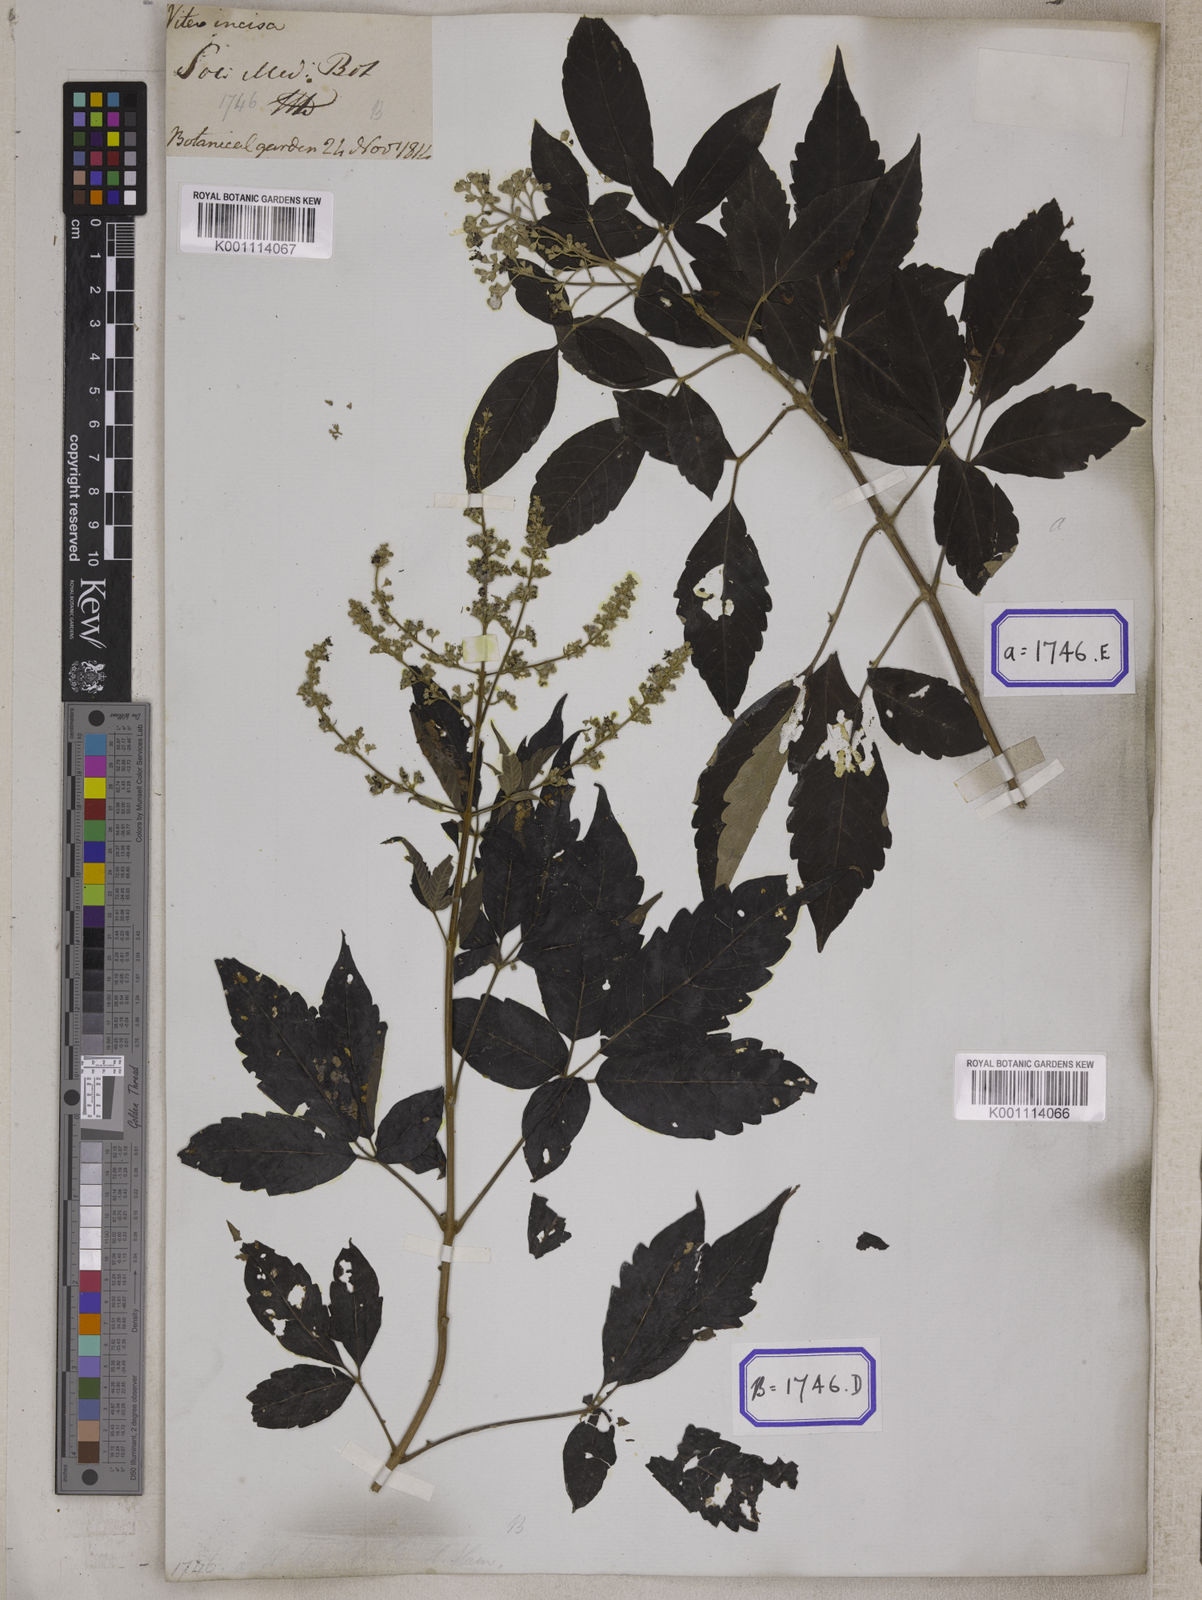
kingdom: Plantae
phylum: Tracheophyta
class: Magnoliopsida
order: Lamiales
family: Lamiaceae
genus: Vitex
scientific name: Vitex negundo
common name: Chinese chastetree
